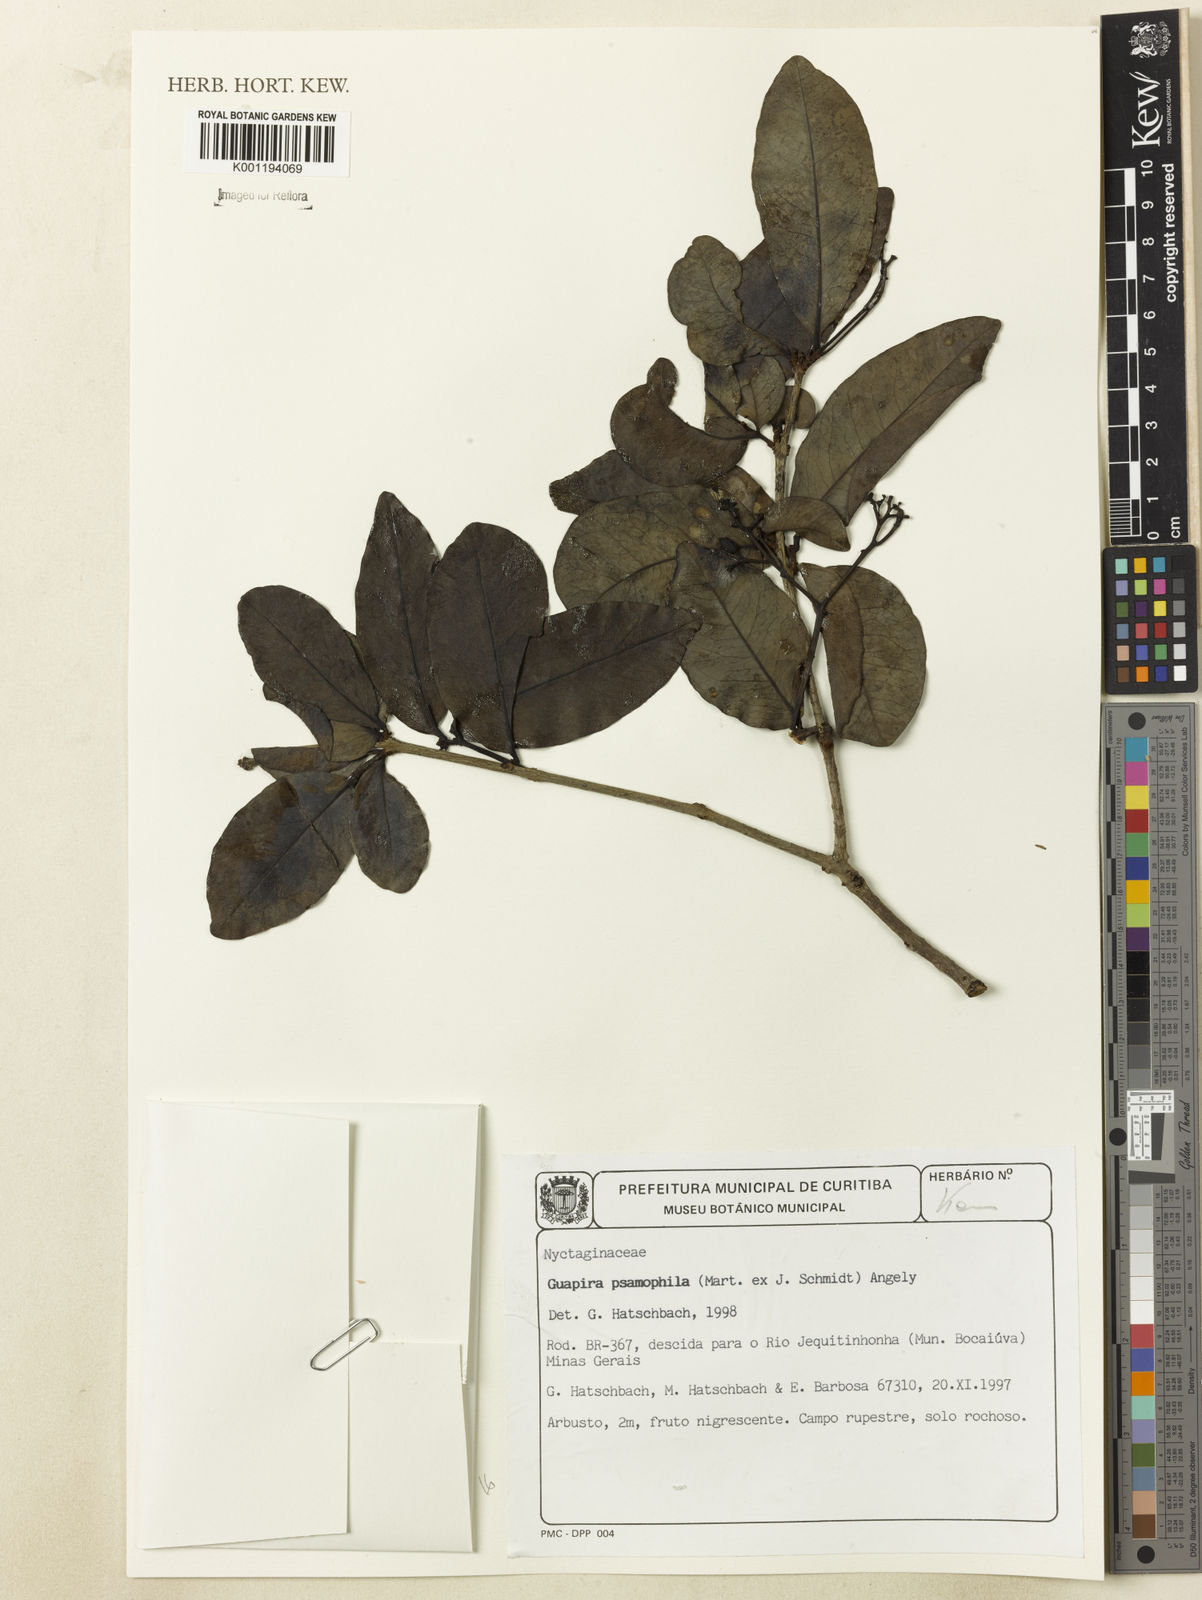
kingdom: Plantae
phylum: Tracheophyta
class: Magnoliopsida
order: Caryophyllales
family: Nyctaginaceae
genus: Guapira
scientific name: Guapira laxa
